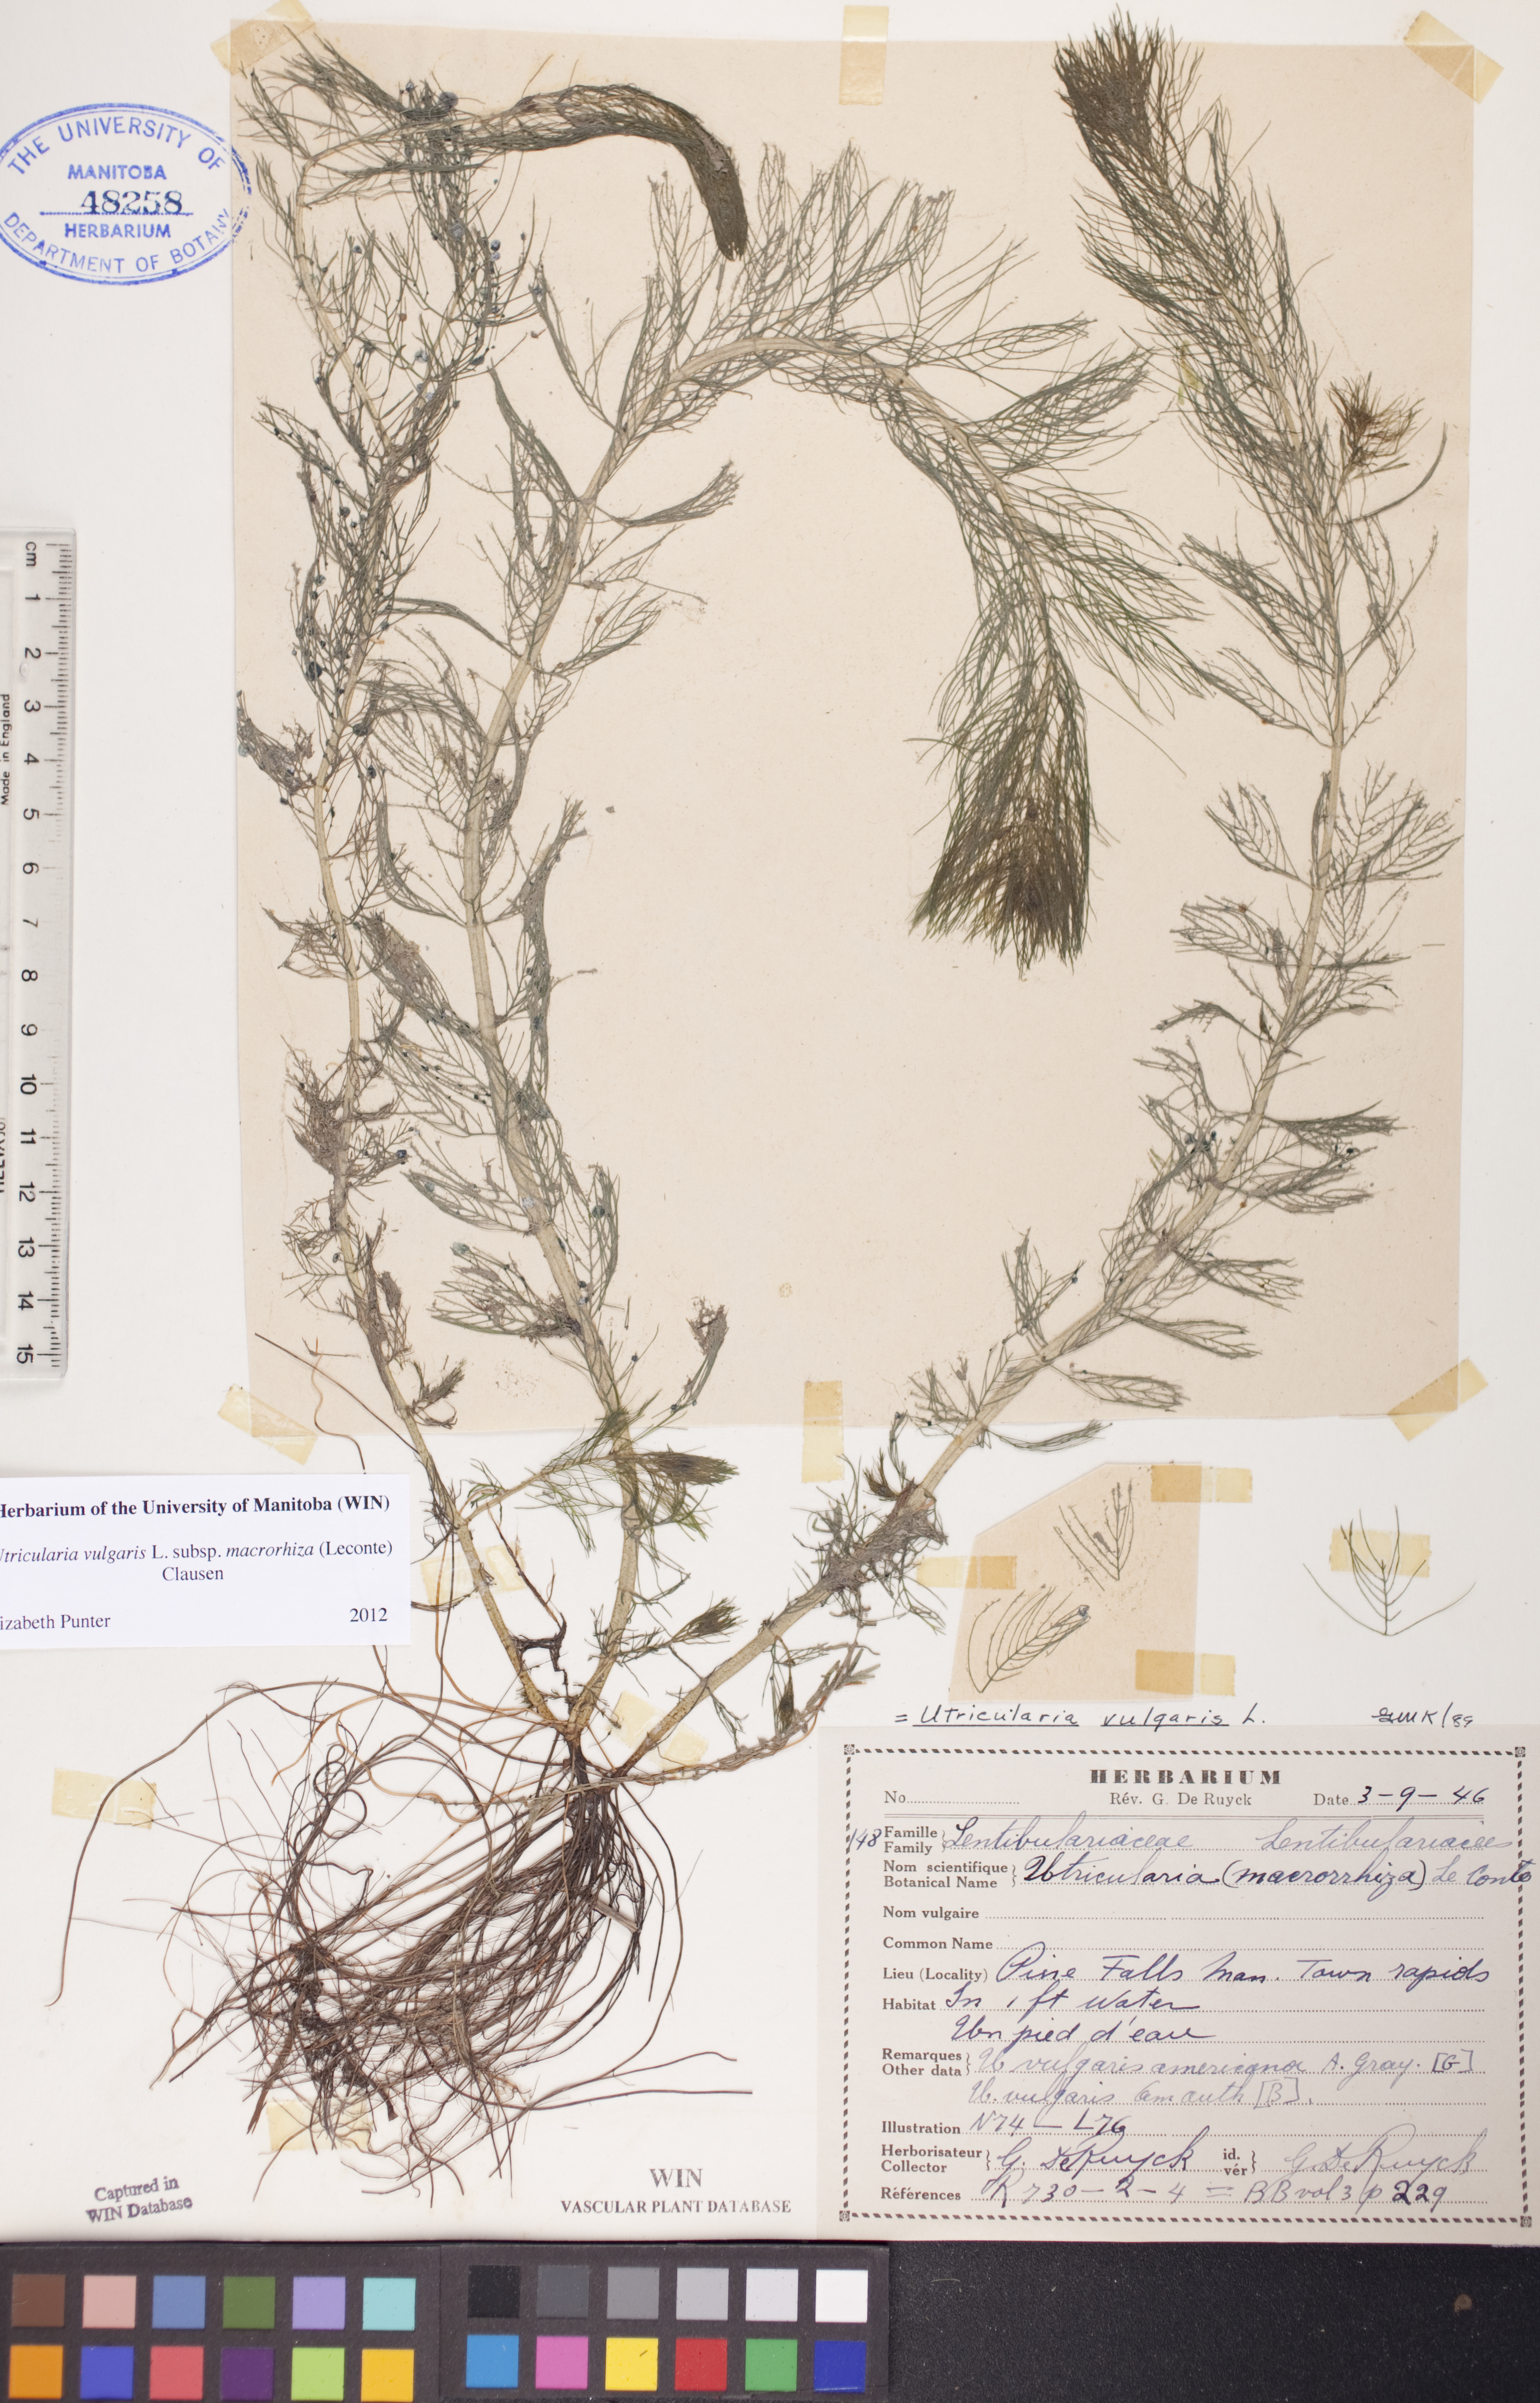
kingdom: Plantae
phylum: Tracheophyta
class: Magnoliopsida
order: Lamiales
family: Lentibulariaceae
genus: Utricularia
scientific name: Utricularia macrorhiza
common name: Common bladderwort
